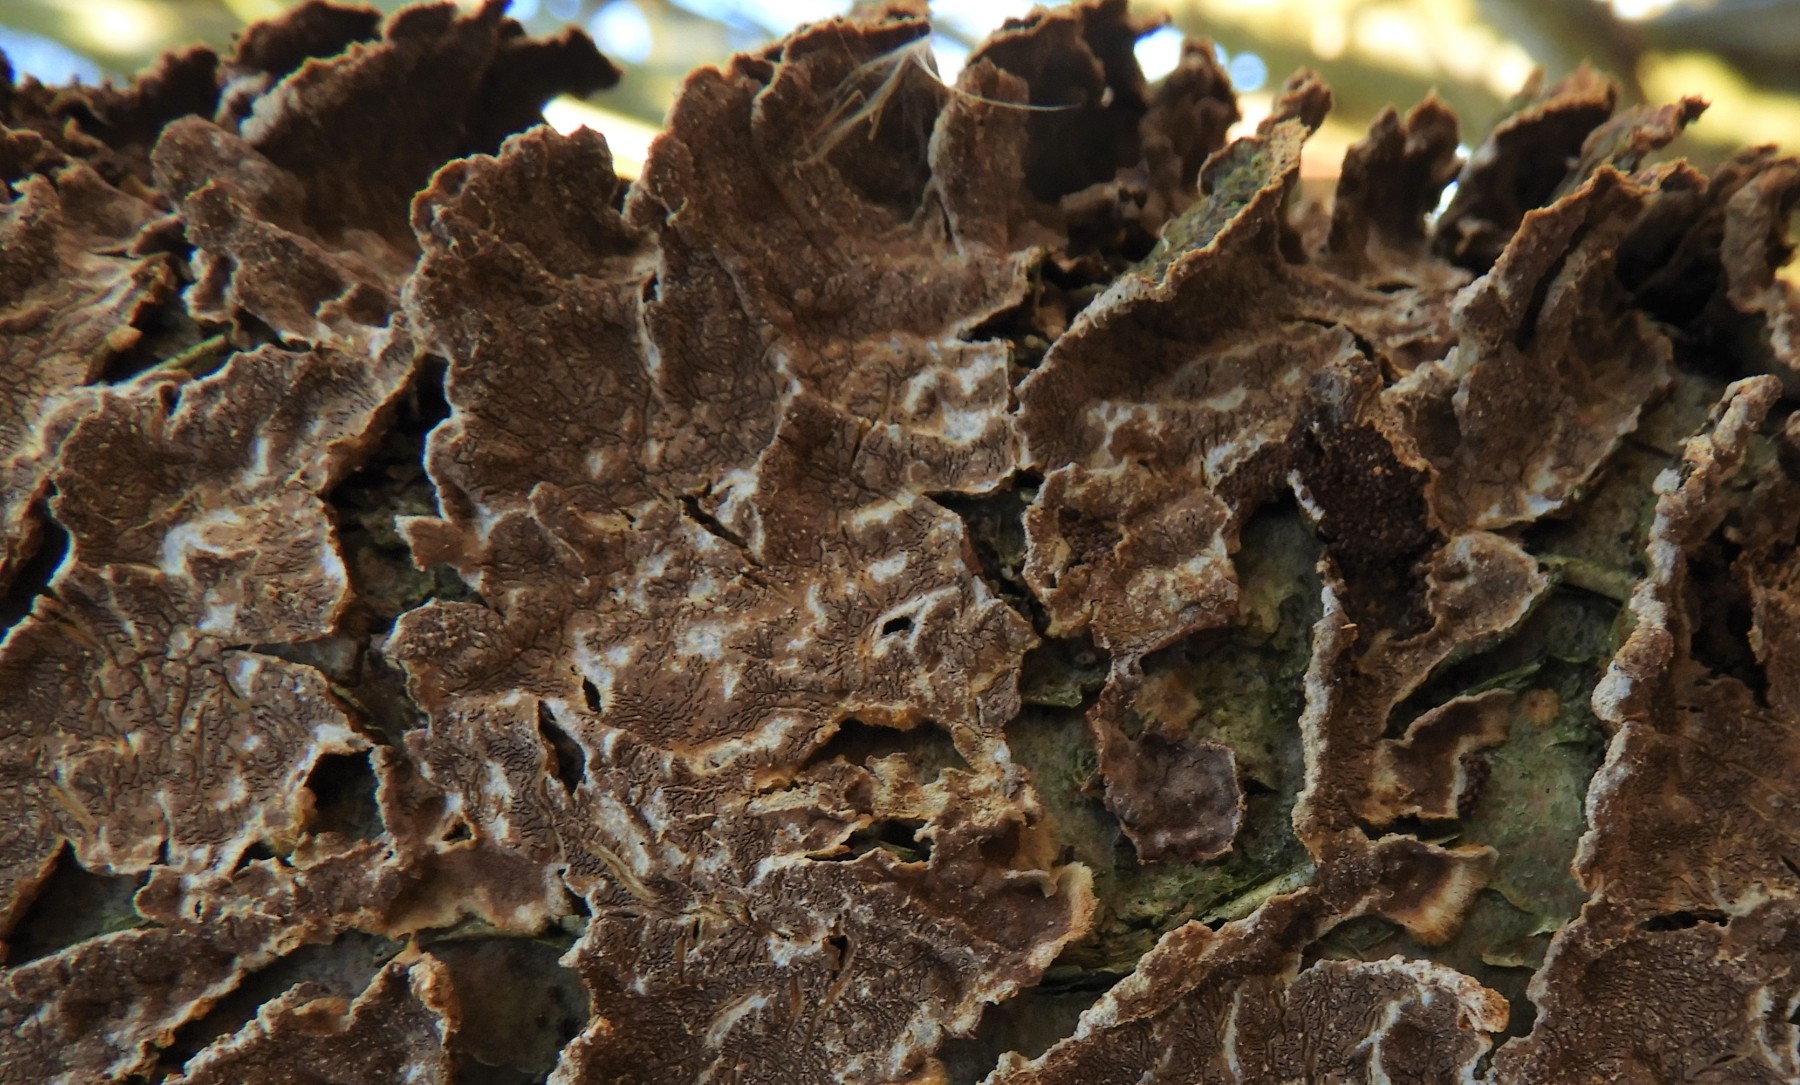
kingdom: Fungi
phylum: Basidiomycota
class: Agaricomycetes
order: Hymenochaetales
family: Hymenochaetaceae
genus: Hydnoporia
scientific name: Hydnoporia tabacina
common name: tobaksbrun ruslædersvamp
